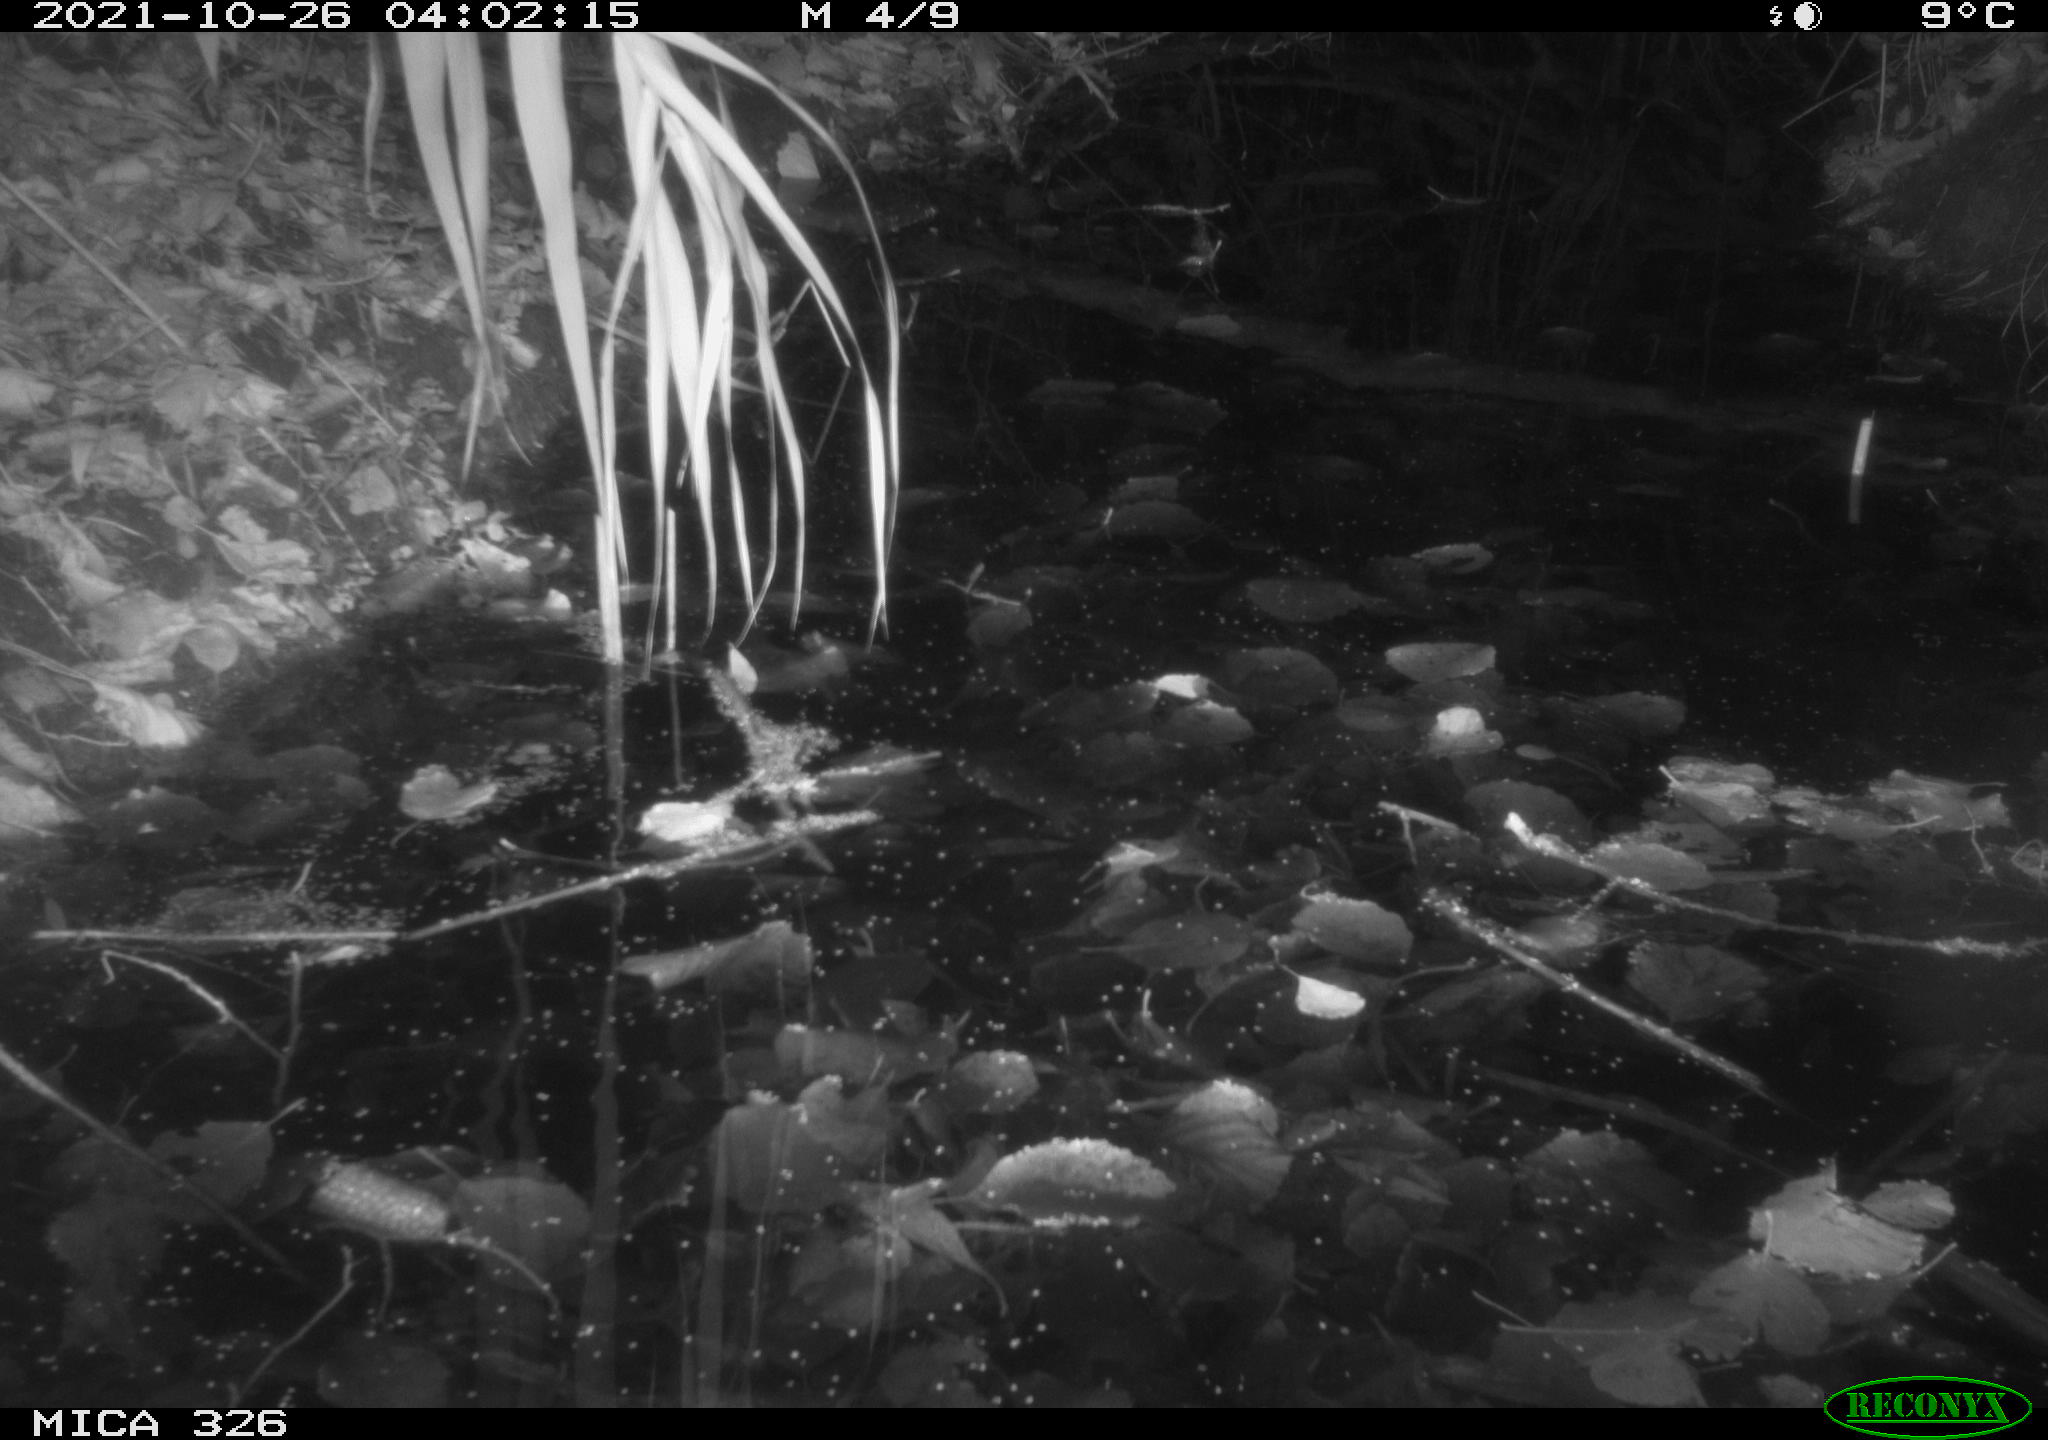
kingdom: Animalia
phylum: Chordata
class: Mammalia
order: Rodentia
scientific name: Rodentia
